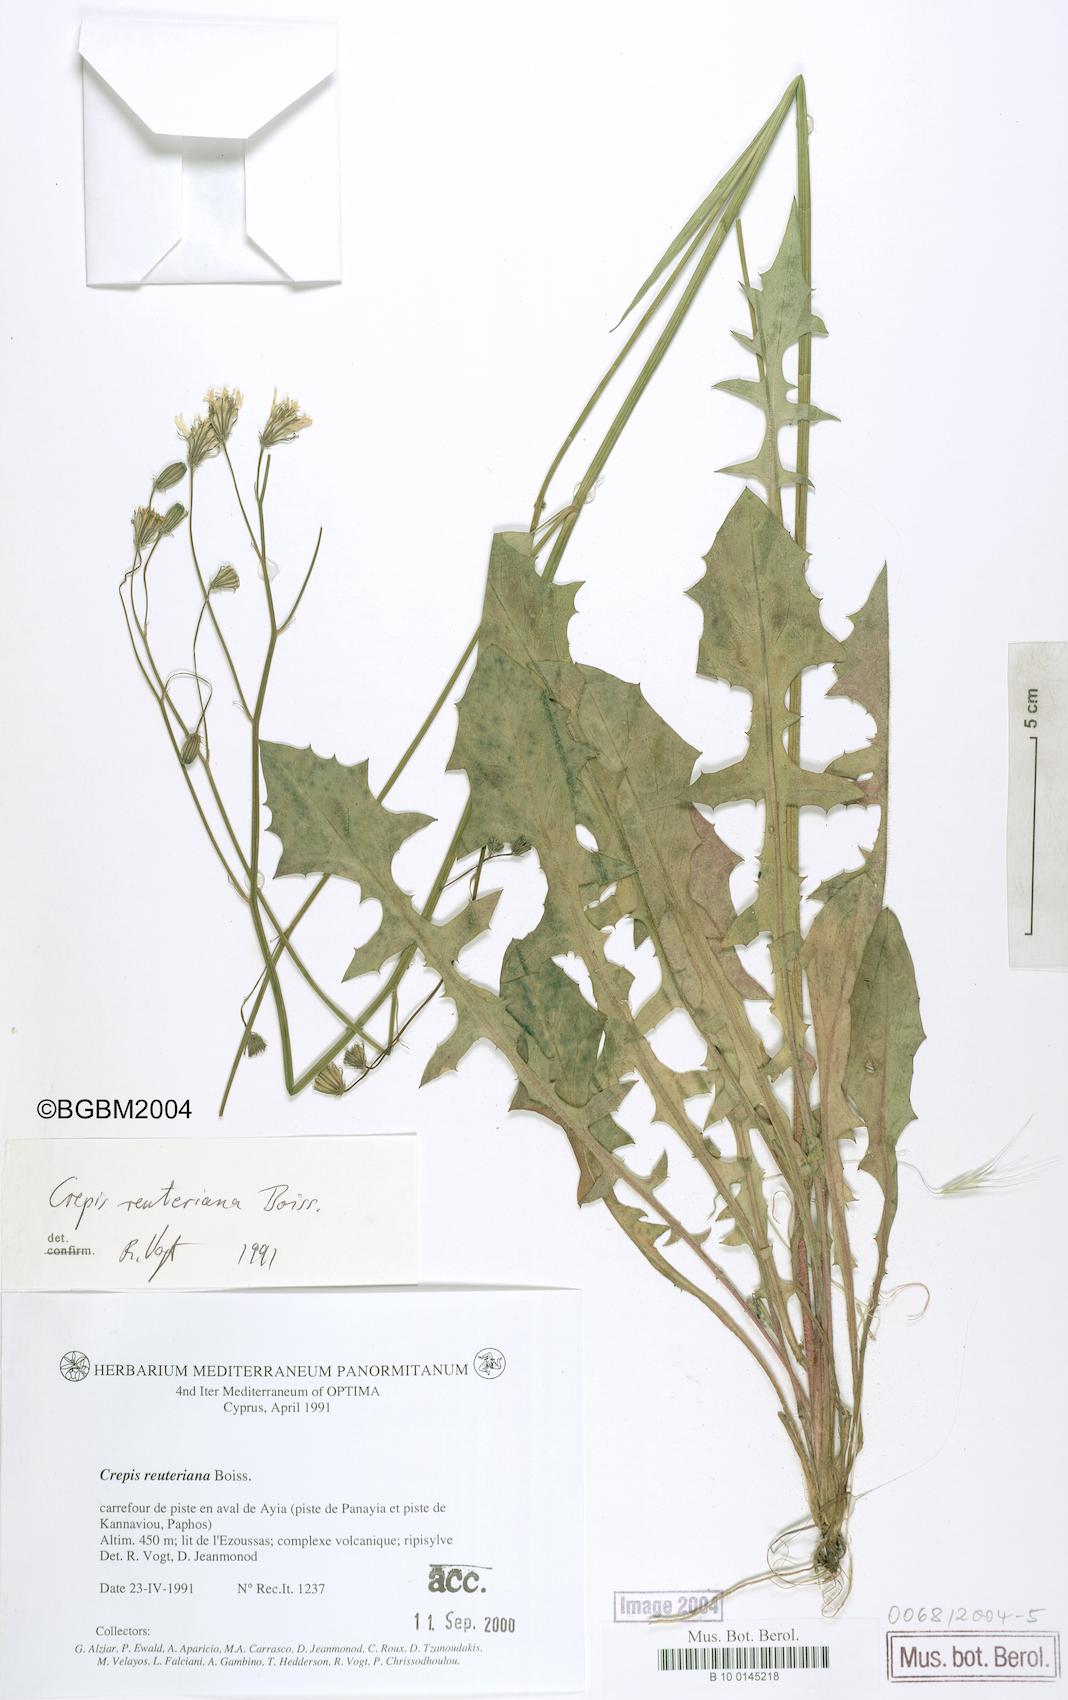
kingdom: Plantae
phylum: Tracheophyta
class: Magnoliopsida
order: Asterales
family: Asteraceae
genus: Crepis
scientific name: Crepis reuteriana
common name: Hawk's-beard
